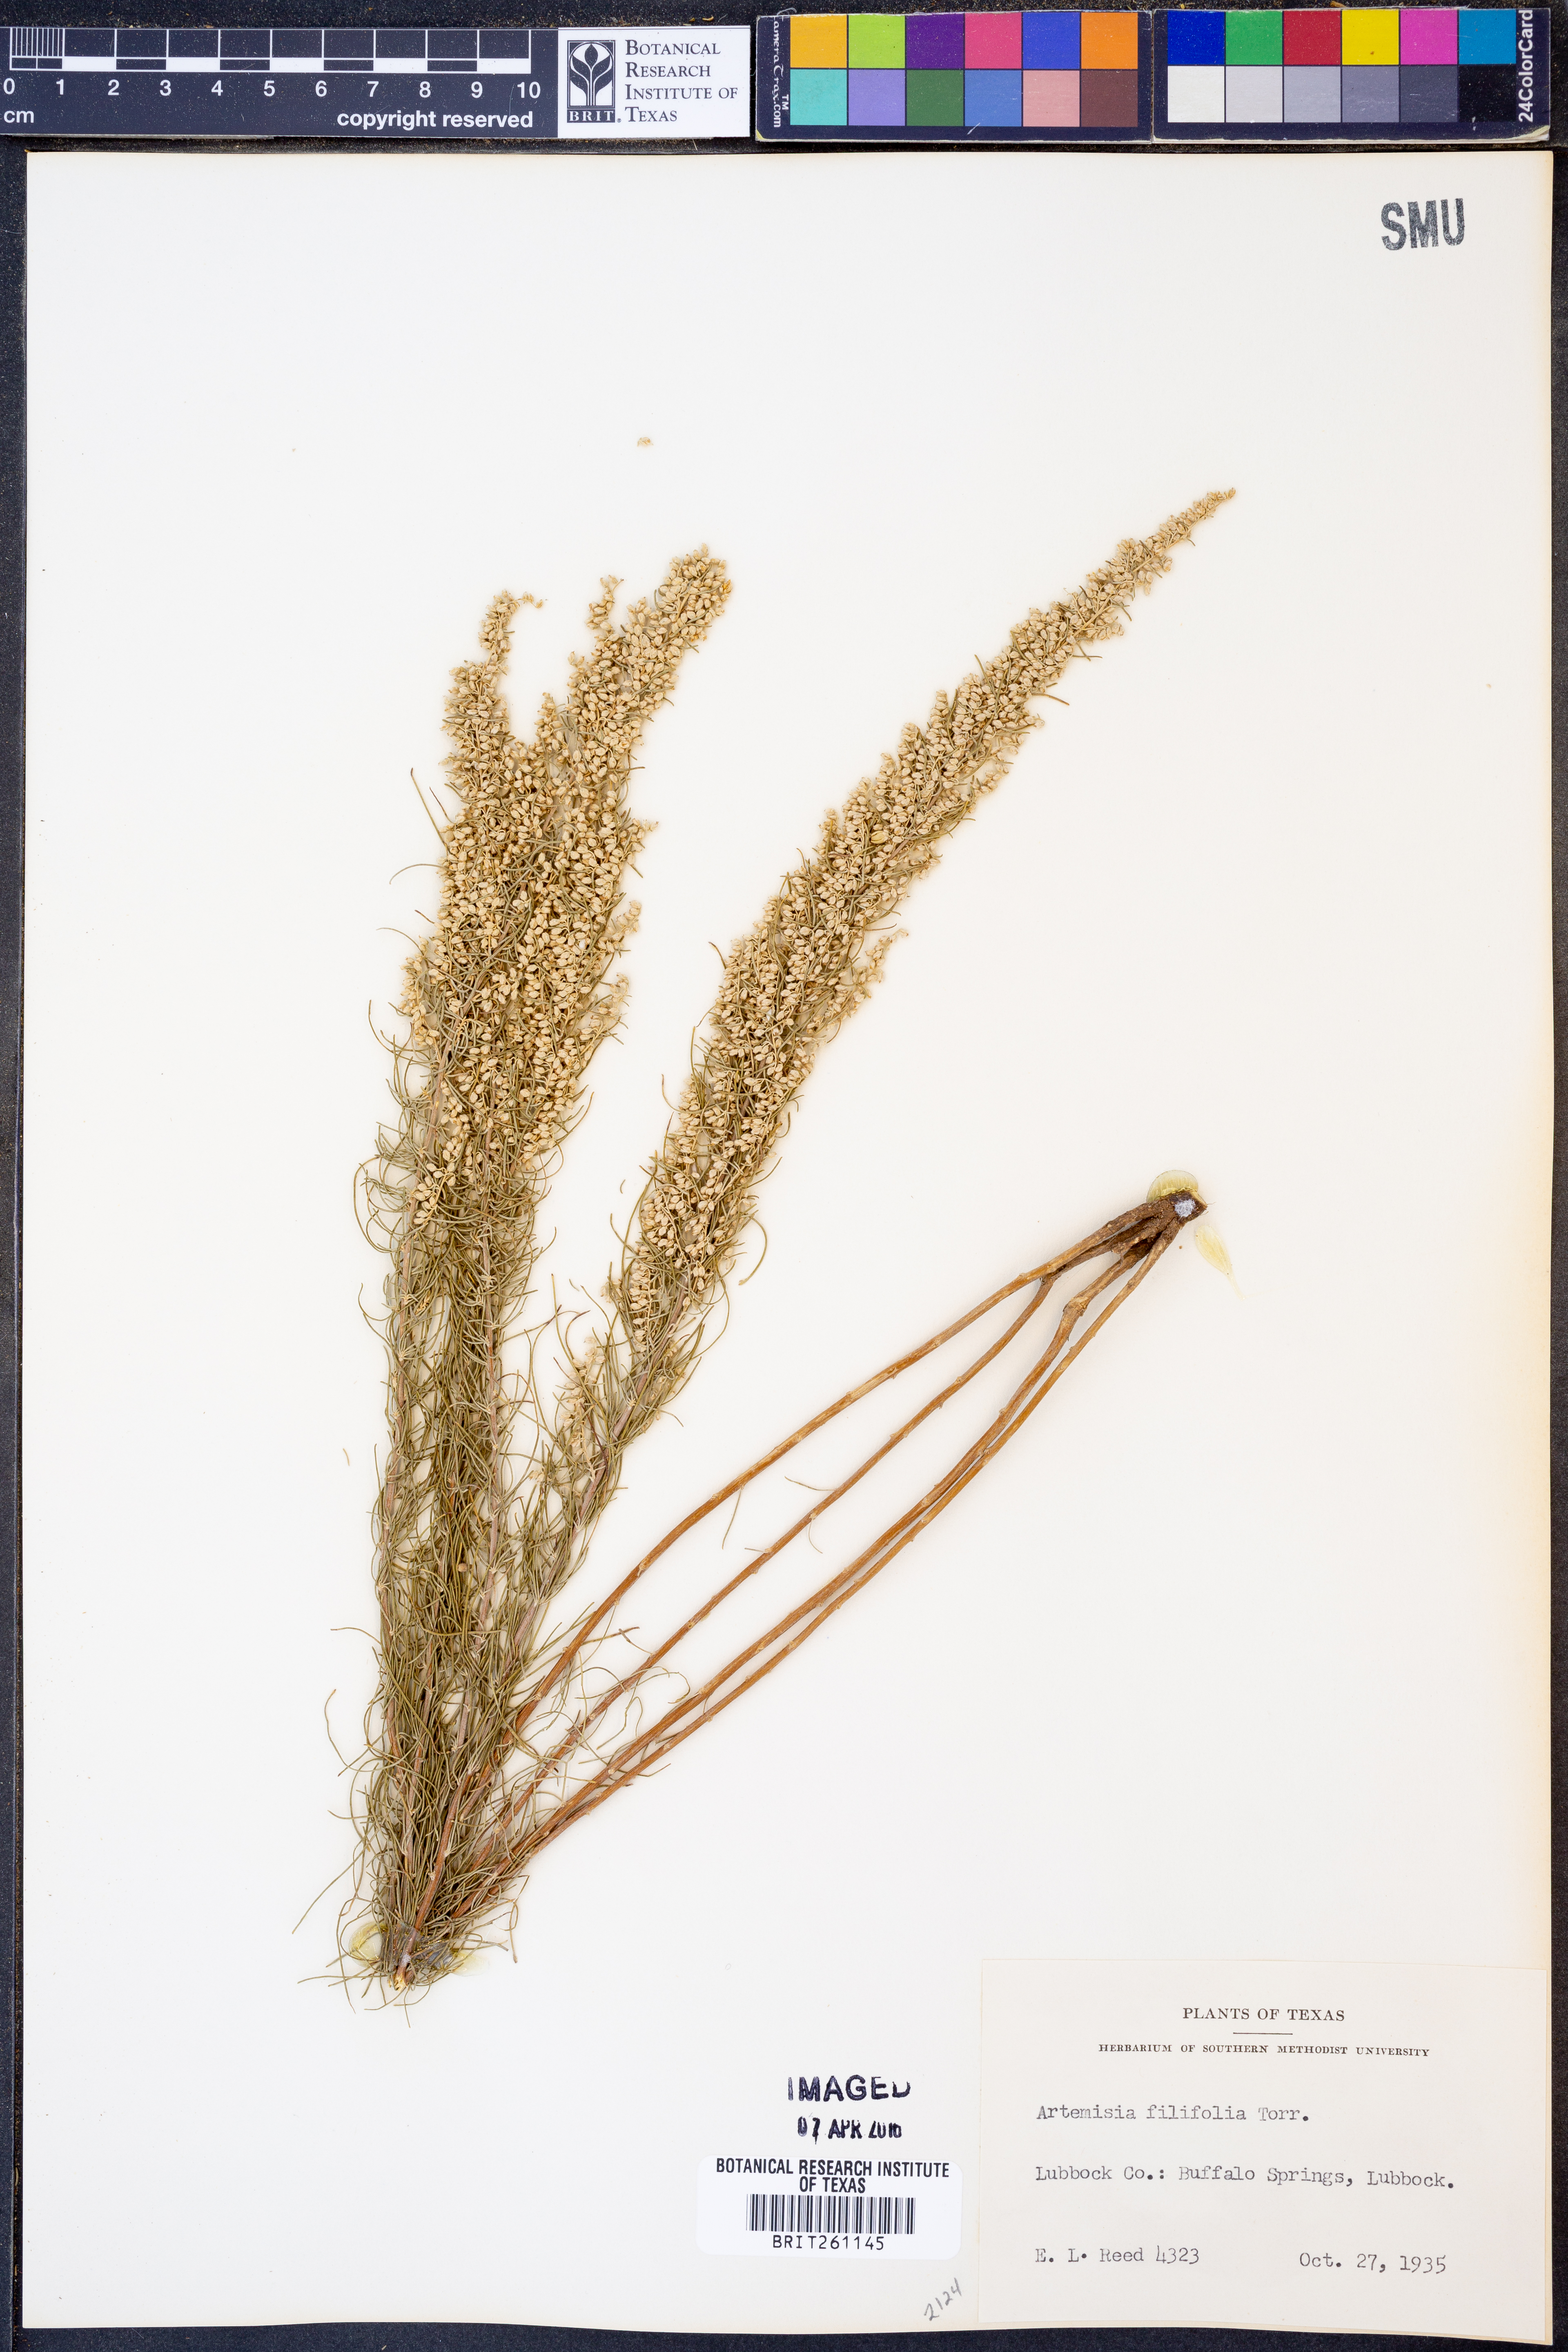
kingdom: Plantae
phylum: Tracheophyta
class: Magnoliopsida
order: Asterales
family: Asteraceae
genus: Artemisia
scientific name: Artemisia filifolia
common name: Sand-sage
